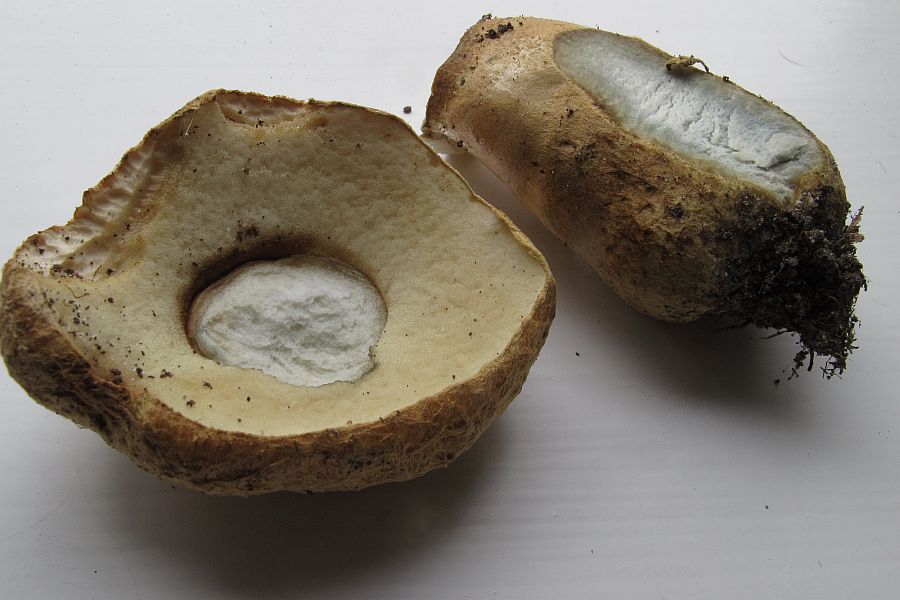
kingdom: Fungi
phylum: Basidiomycota
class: Agaricomycetes
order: Boletales
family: Gyroporaceae
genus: Gyroporus
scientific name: Gyroporus cyanescens
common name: blånende kammerrørhat
